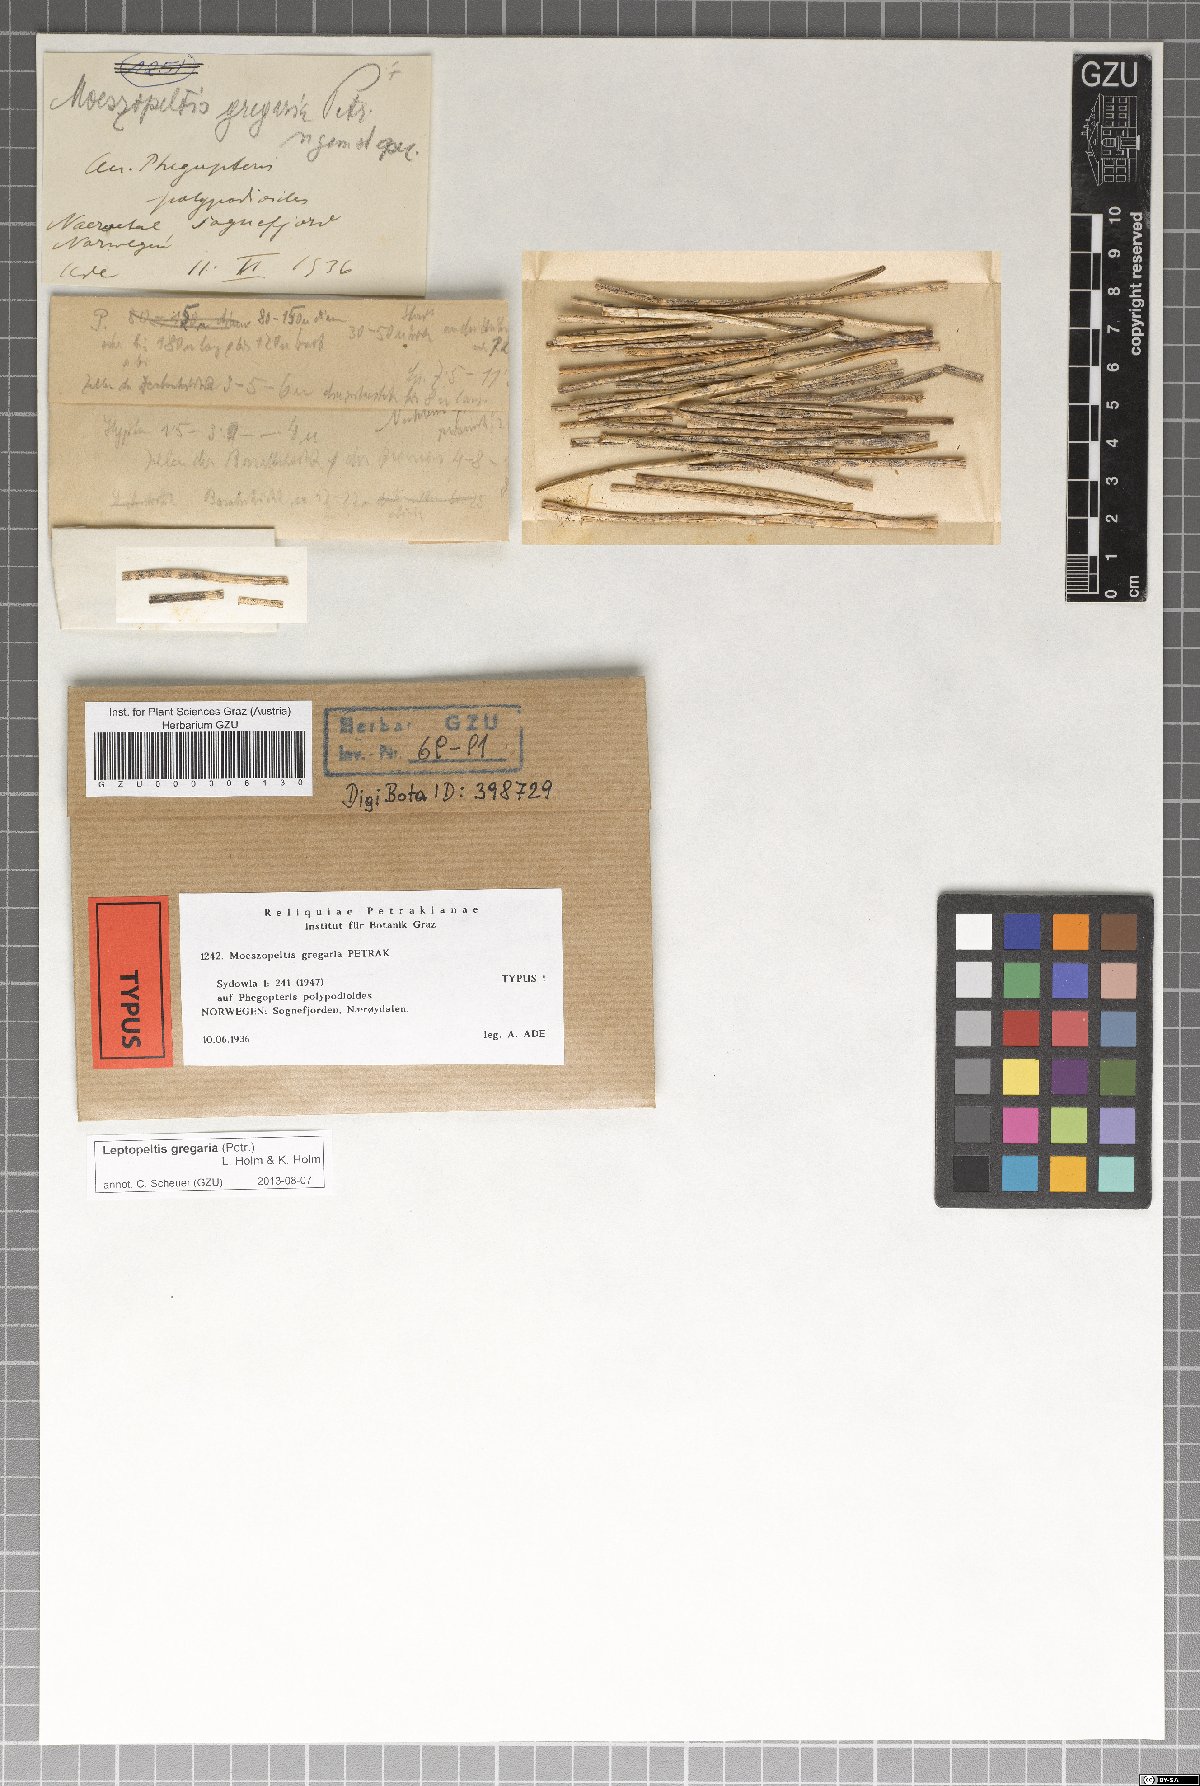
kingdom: Fungi
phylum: Ascomycota
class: Dothideomycetes
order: Microthyriales
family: Leptopeltidaceae
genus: Leptopeltis
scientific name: Leptopeltis gregaria
